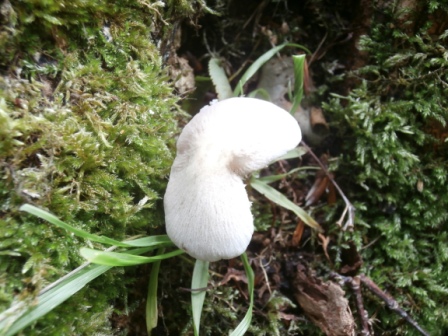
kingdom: Fungi
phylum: Basidiomycota
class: Agaricomycetes
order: Agaricales
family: Psathyrellaceae
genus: Candolleomyces
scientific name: Candolleomyces candolleanus
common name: Candolles mørkhat
